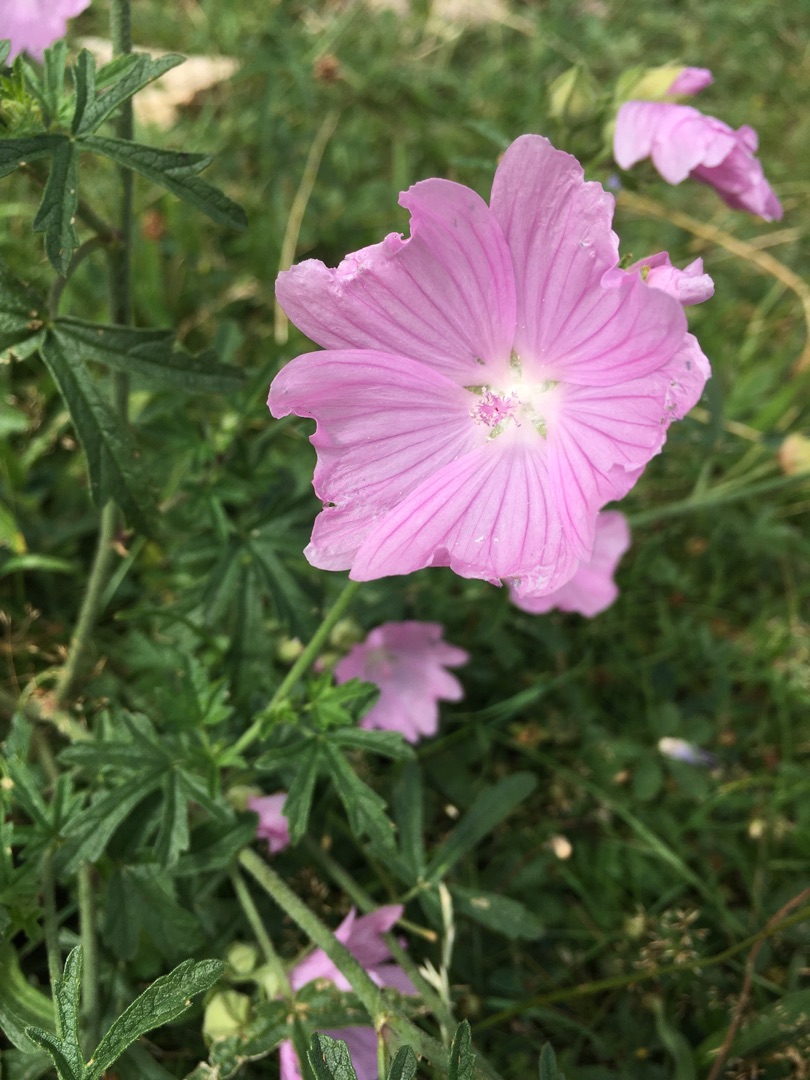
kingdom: Plantae
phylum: Tracheophyta
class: Magnoliopsida
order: Malvales
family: Malvaceae
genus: Malva
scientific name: Malva alcea
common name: Rosen-katost
